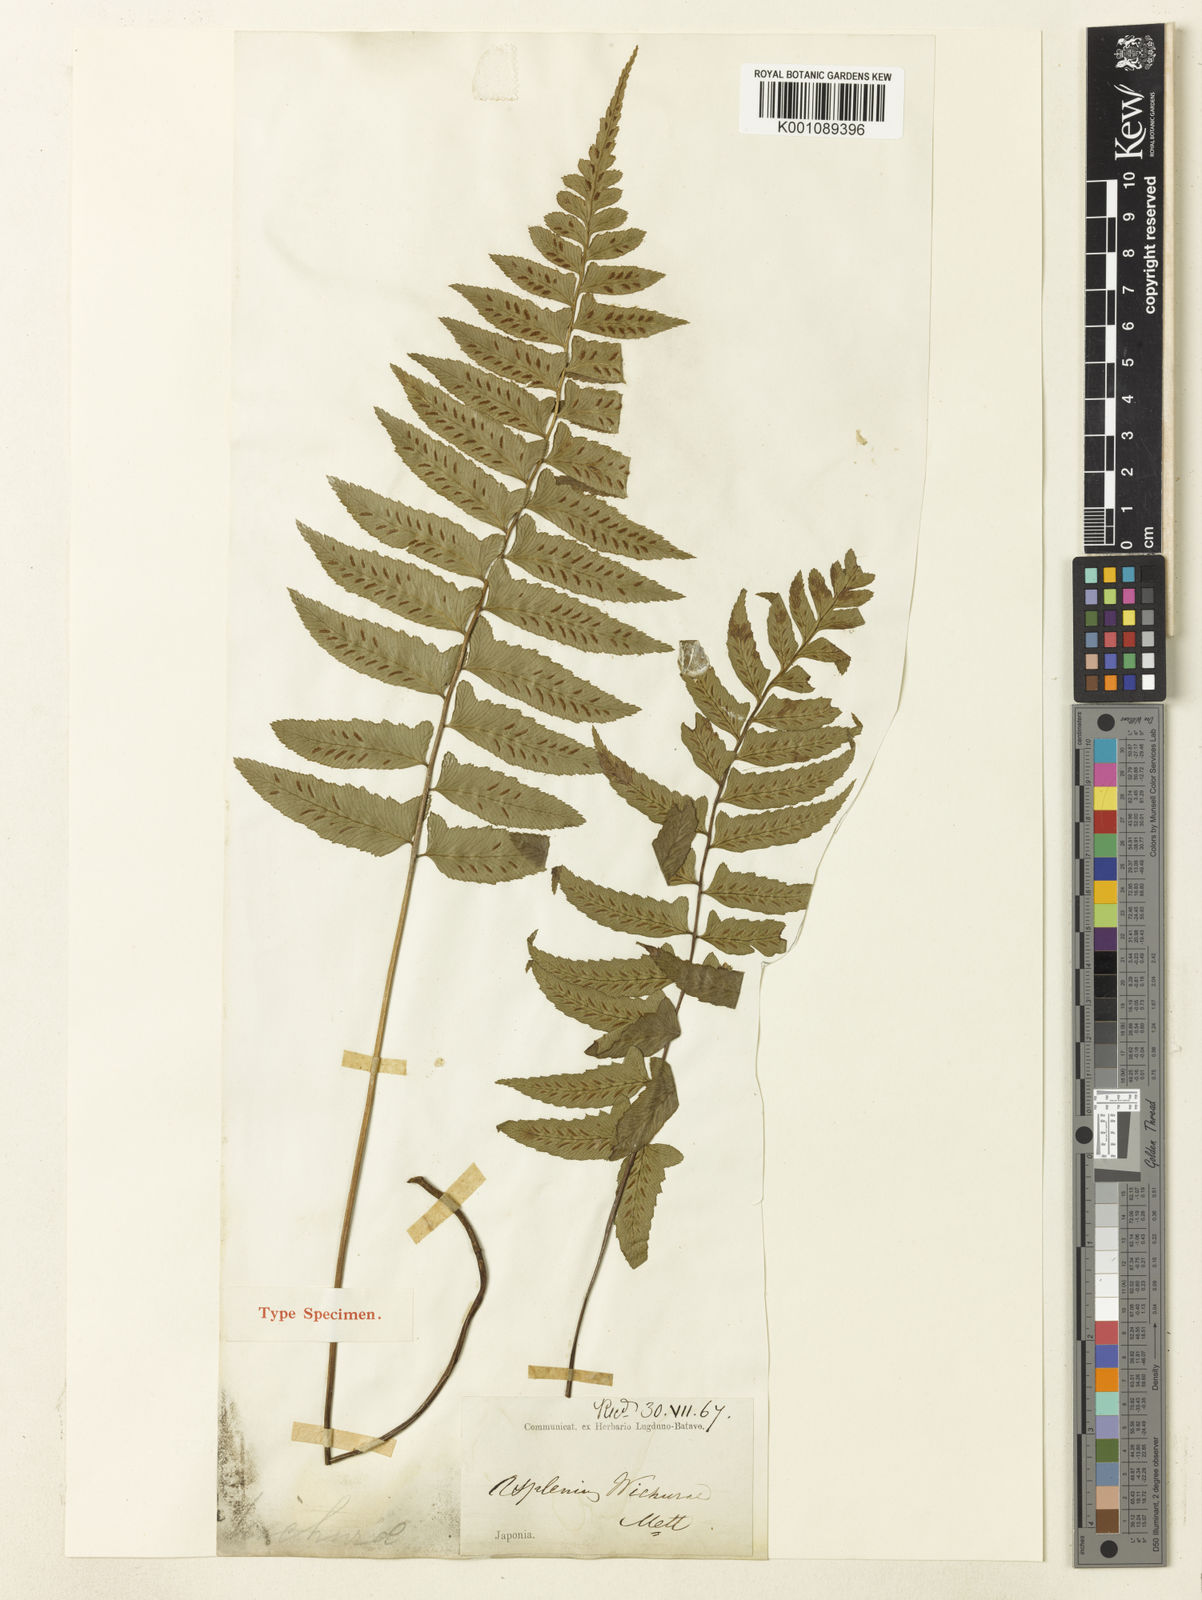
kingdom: Plantae
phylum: Tracheophyta
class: Polypodiopsida
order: Polypodiales
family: Athyriaceae
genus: Diplazium
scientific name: Diplazium wichurae
